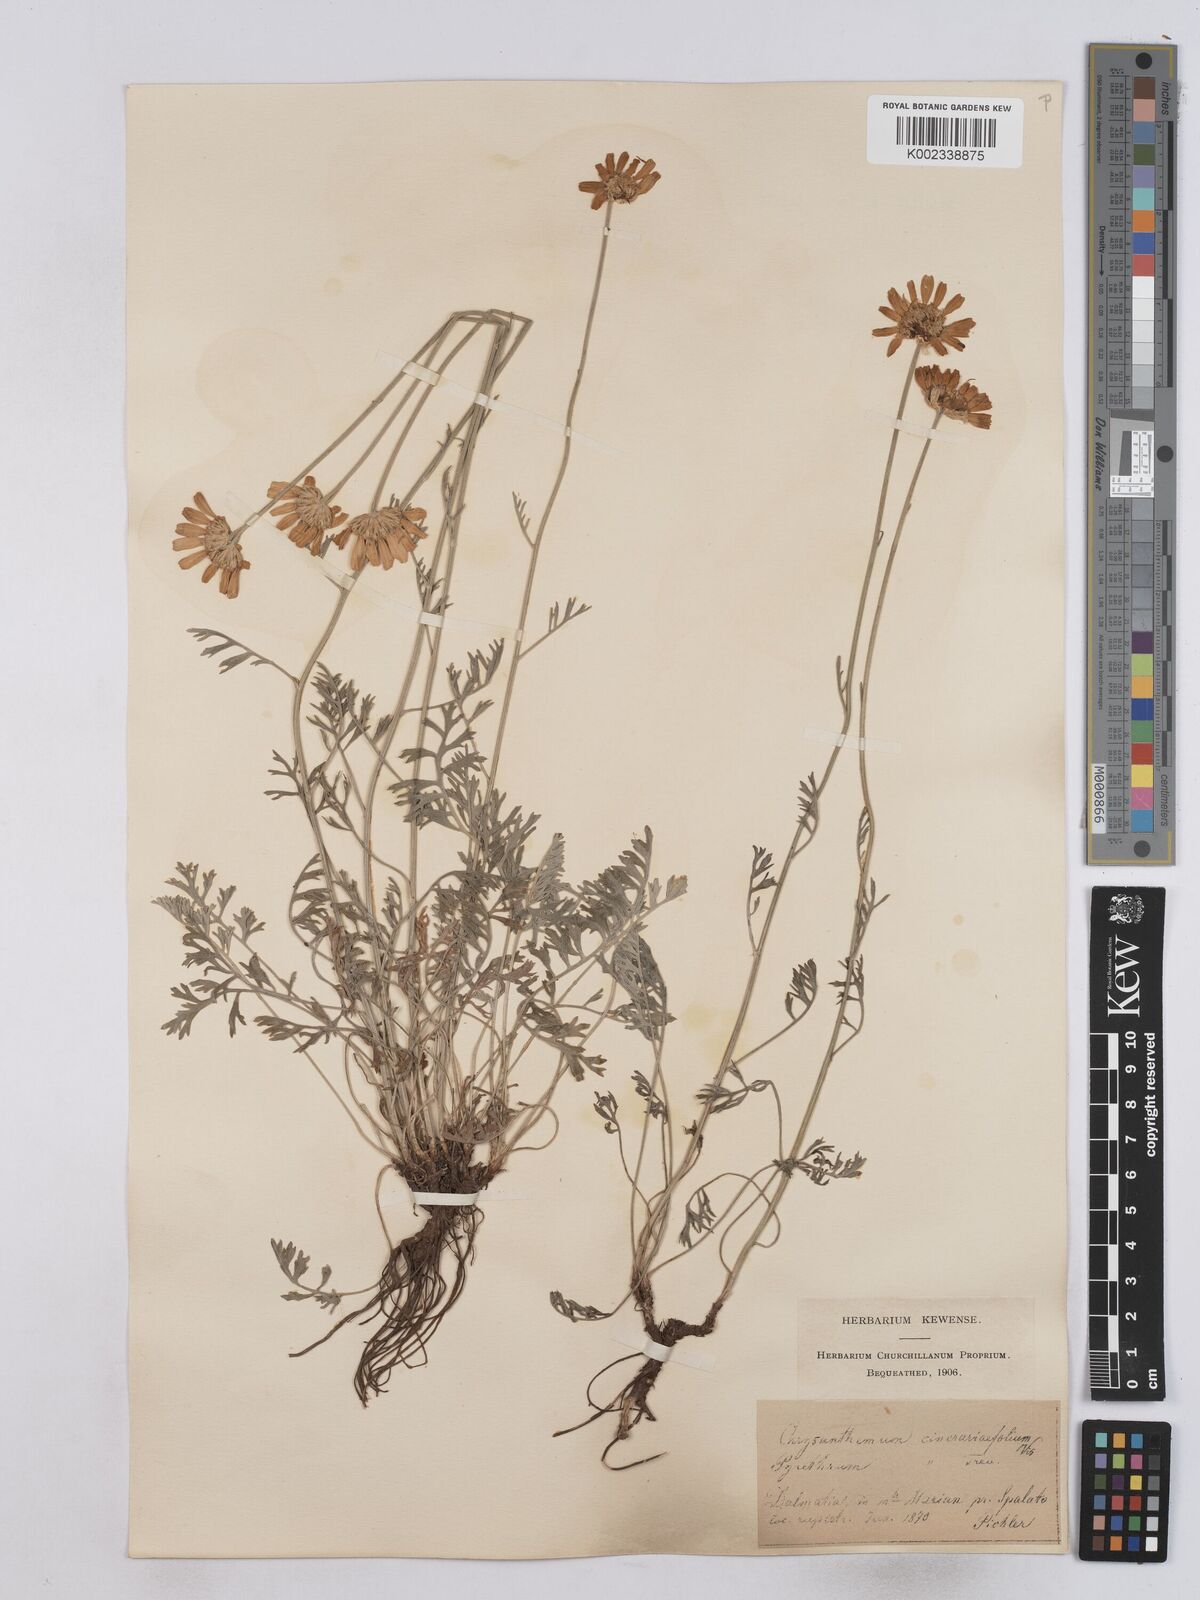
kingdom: Plantae
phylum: Tracheophyta
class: Magnoliopsida
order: Asterales
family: Asteraceae
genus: Tanacetum
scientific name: Tanacetum cinerariifolium
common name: Dalmatian pyrethrum
